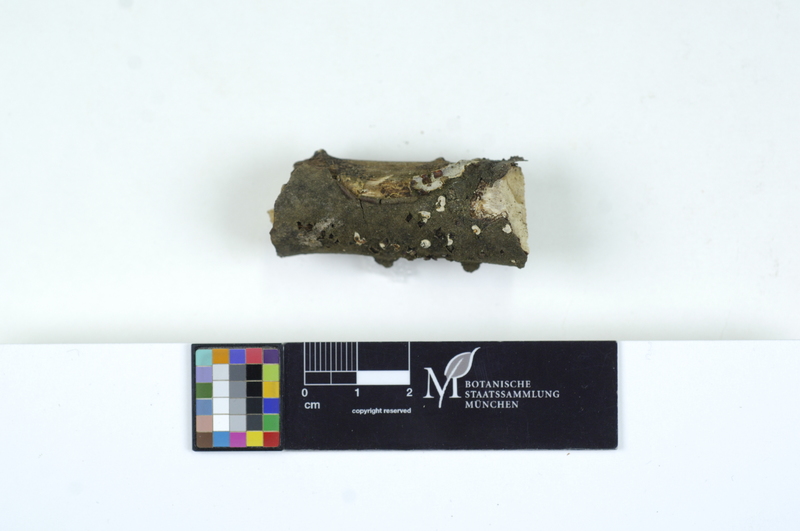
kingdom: Plantae
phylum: Tracheophyta
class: Magnoliopsida
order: Fagales
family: Betulaceae
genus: Carpinus
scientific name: Carpinus
